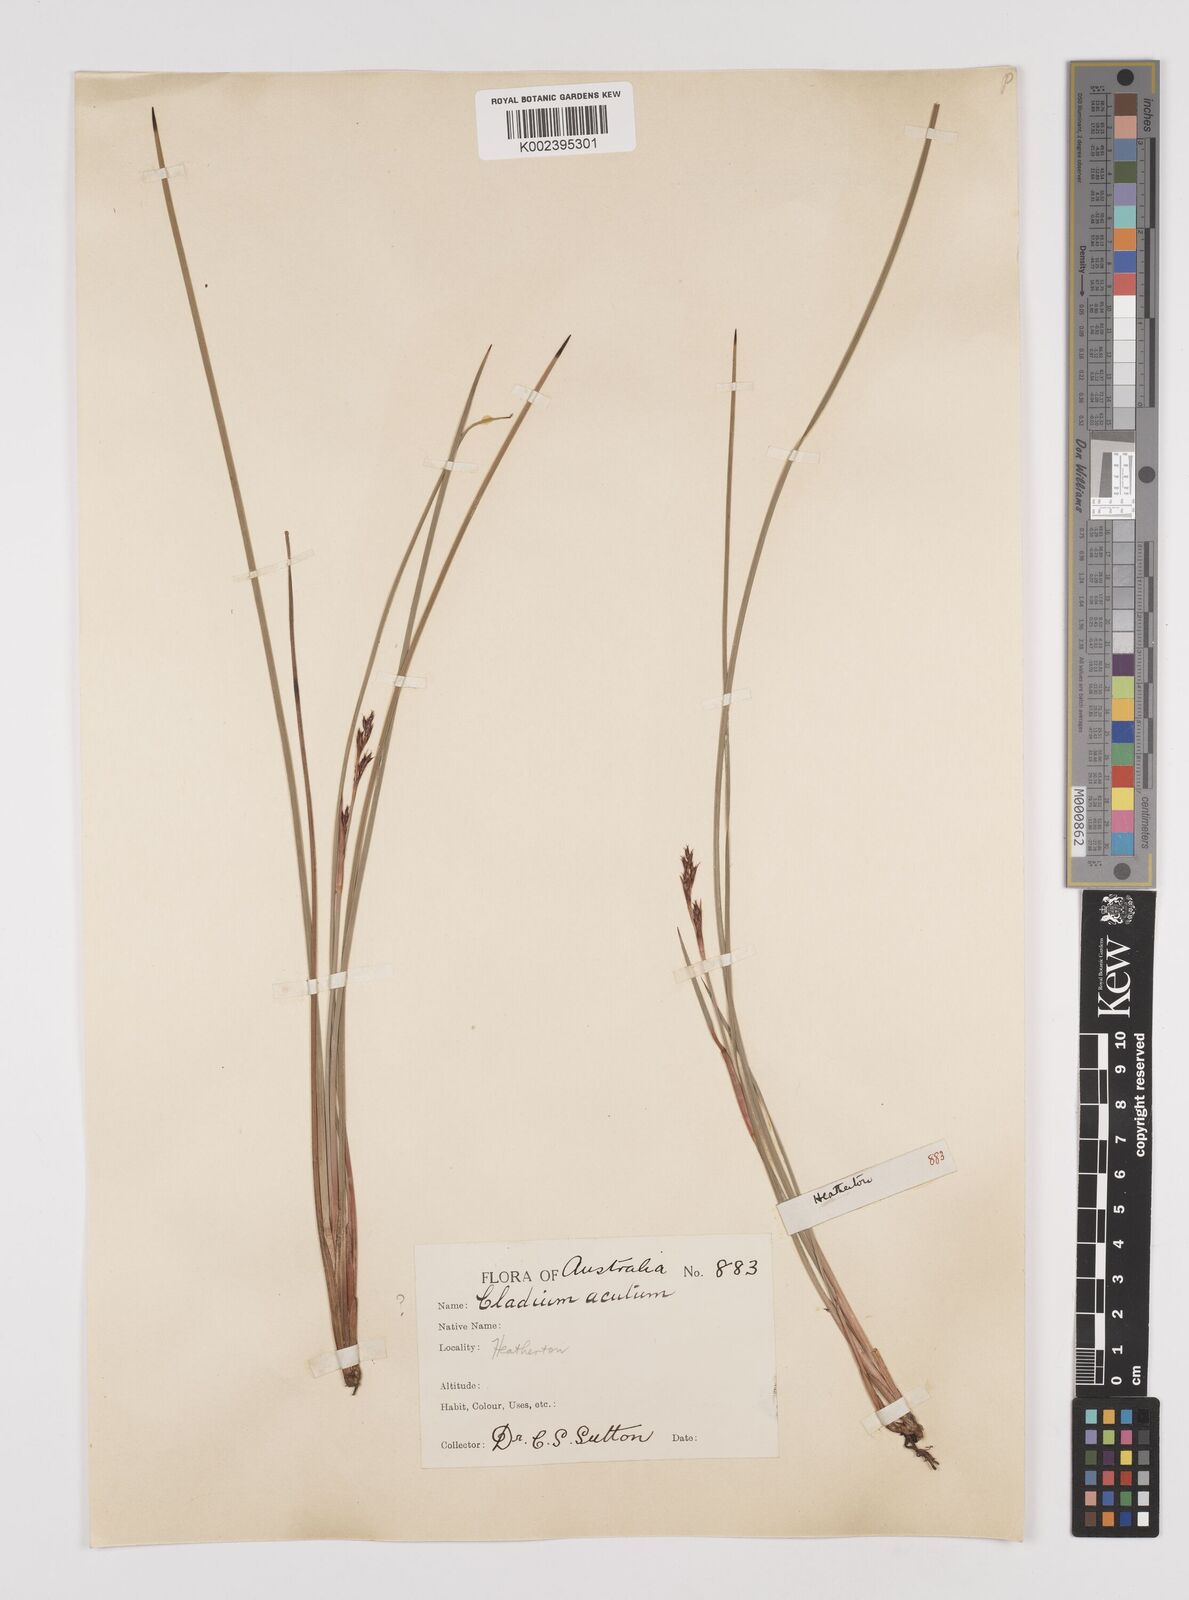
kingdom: Plantae
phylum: Tracheophyta
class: Liliopsida
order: Poales
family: Cyperaceae
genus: Machaerina
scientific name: Machaerina acuta
